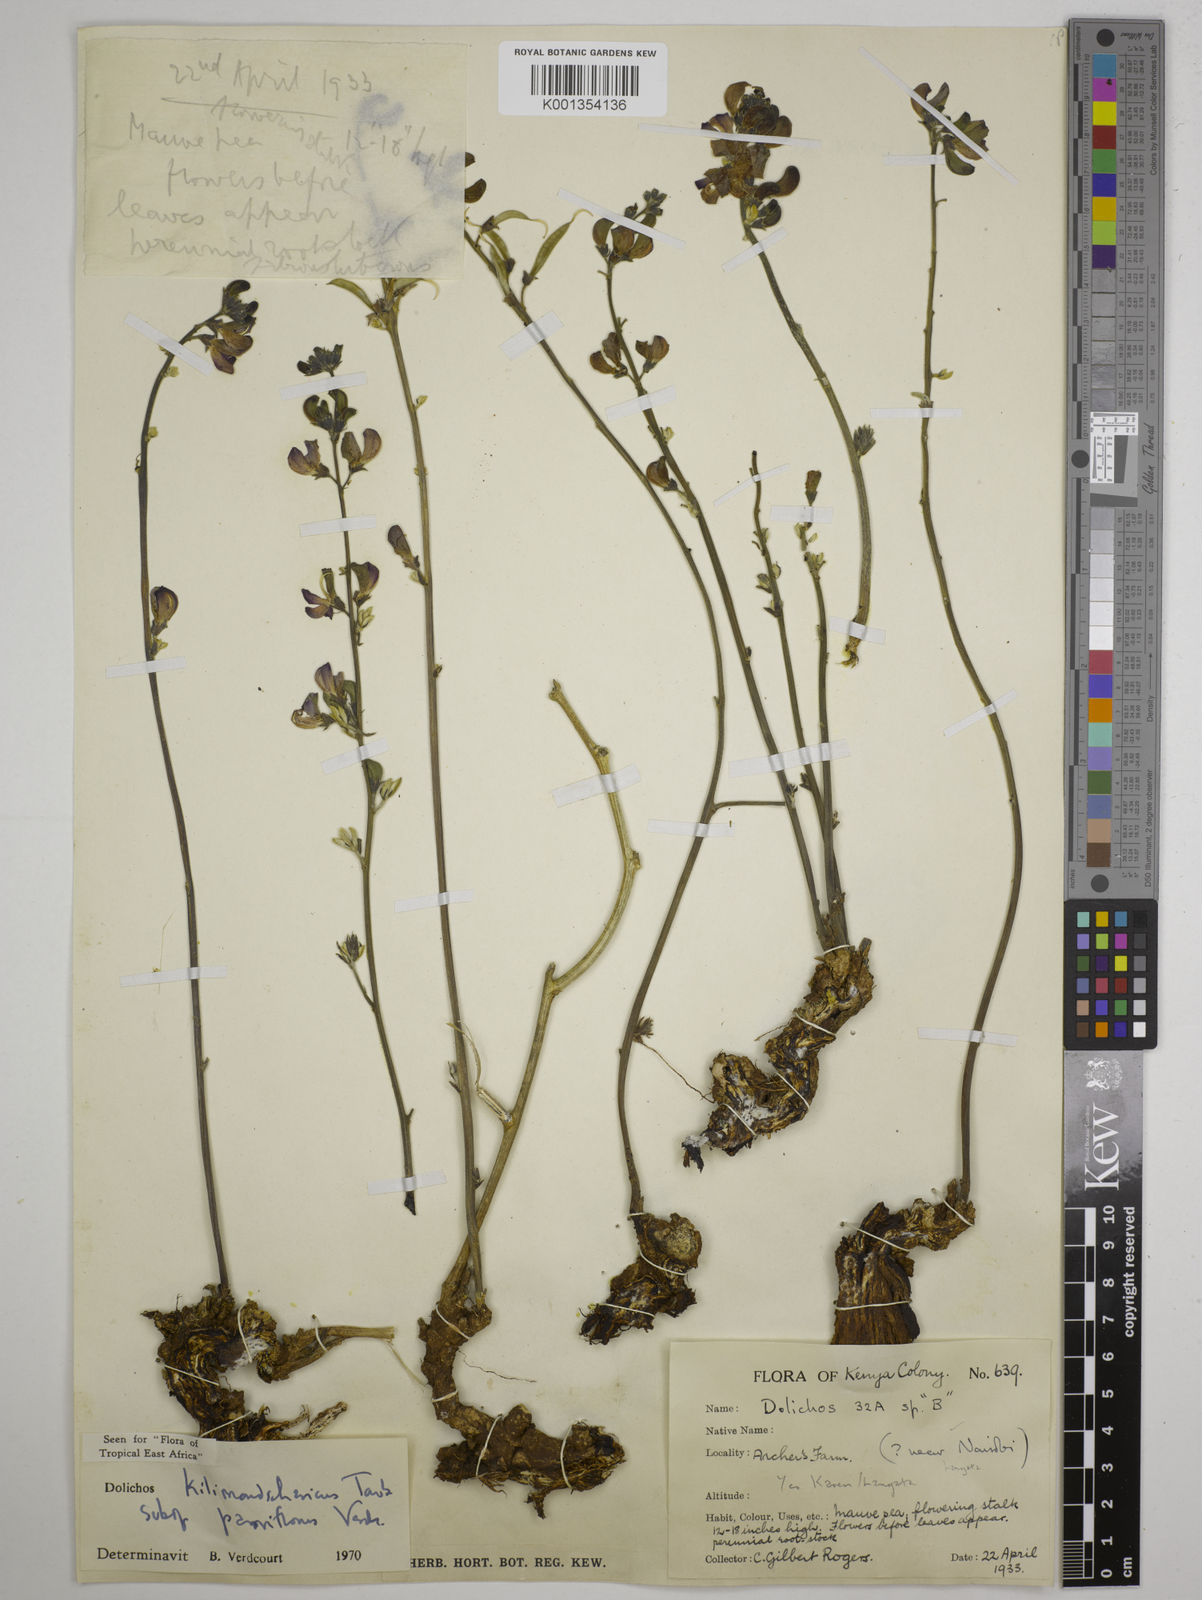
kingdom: Plantae
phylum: Tracheophyta
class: Magnoliopsida
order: Fabales
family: Fabaceae
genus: Dolichos
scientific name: Dolichos
